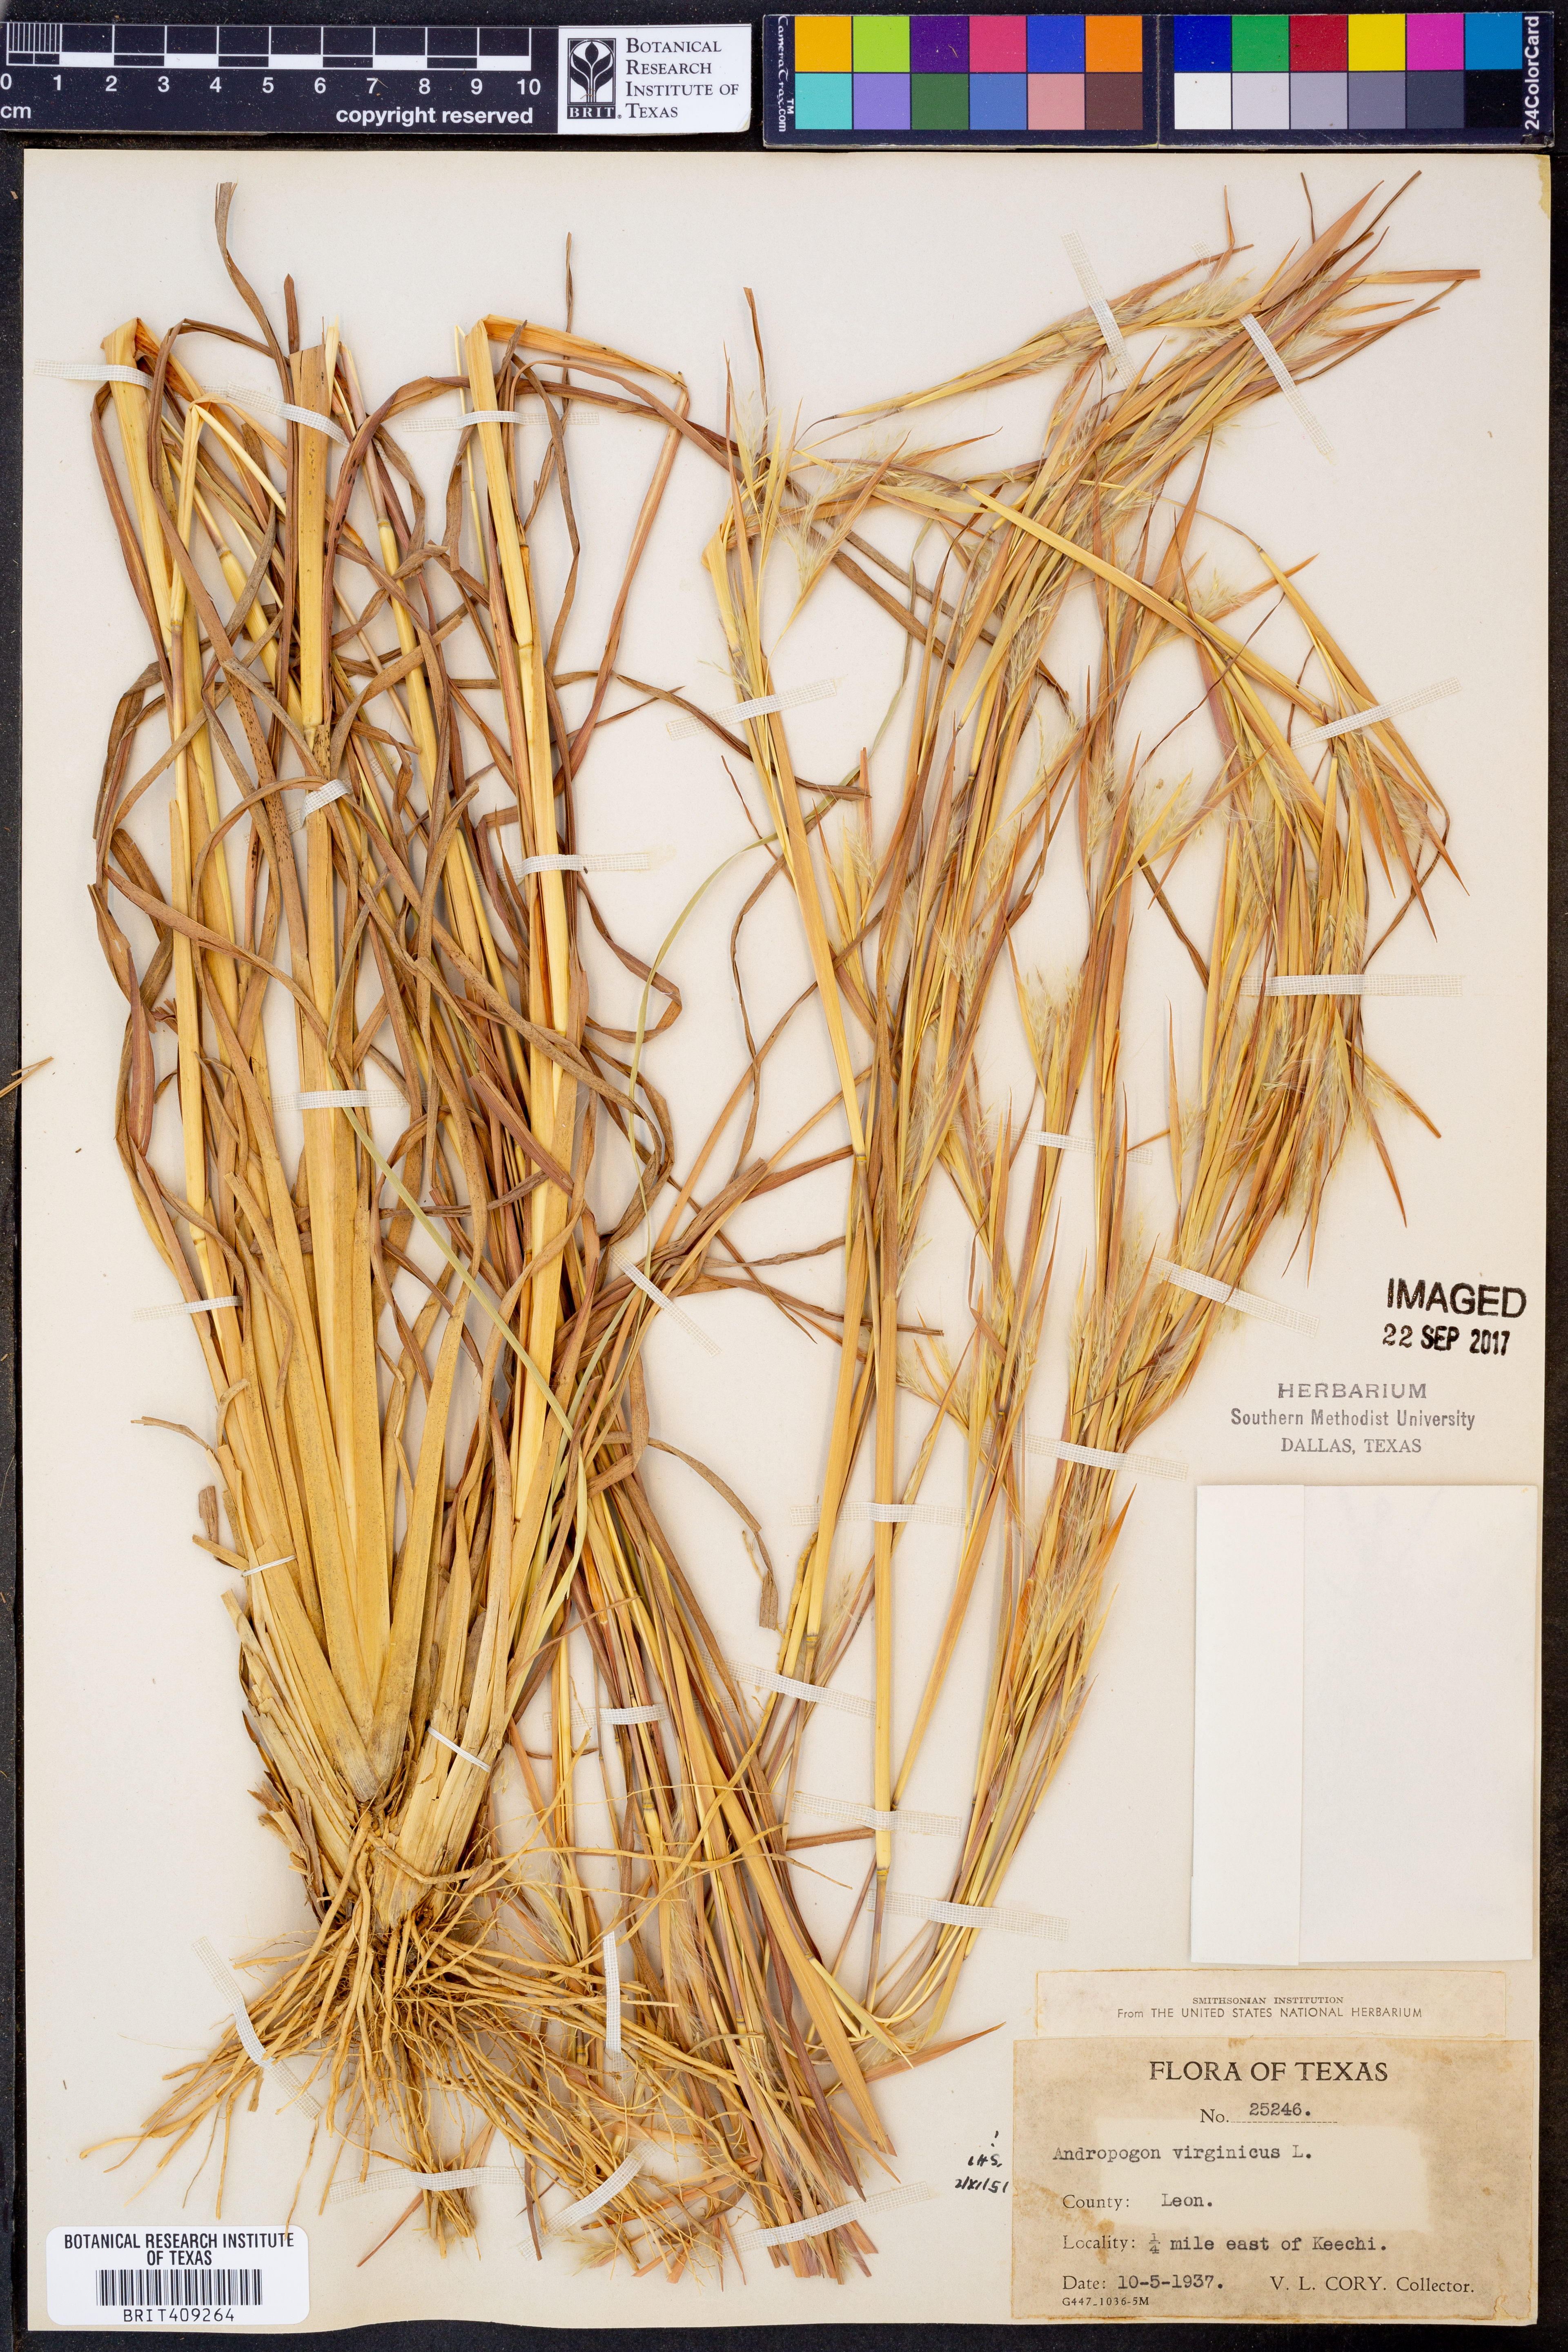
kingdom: Plantae
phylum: Tracheophyta
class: Liliopsida
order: Poales
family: Poaceae
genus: Andropogon
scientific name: Andropogon virginicus
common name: Broomsedge bluestem
